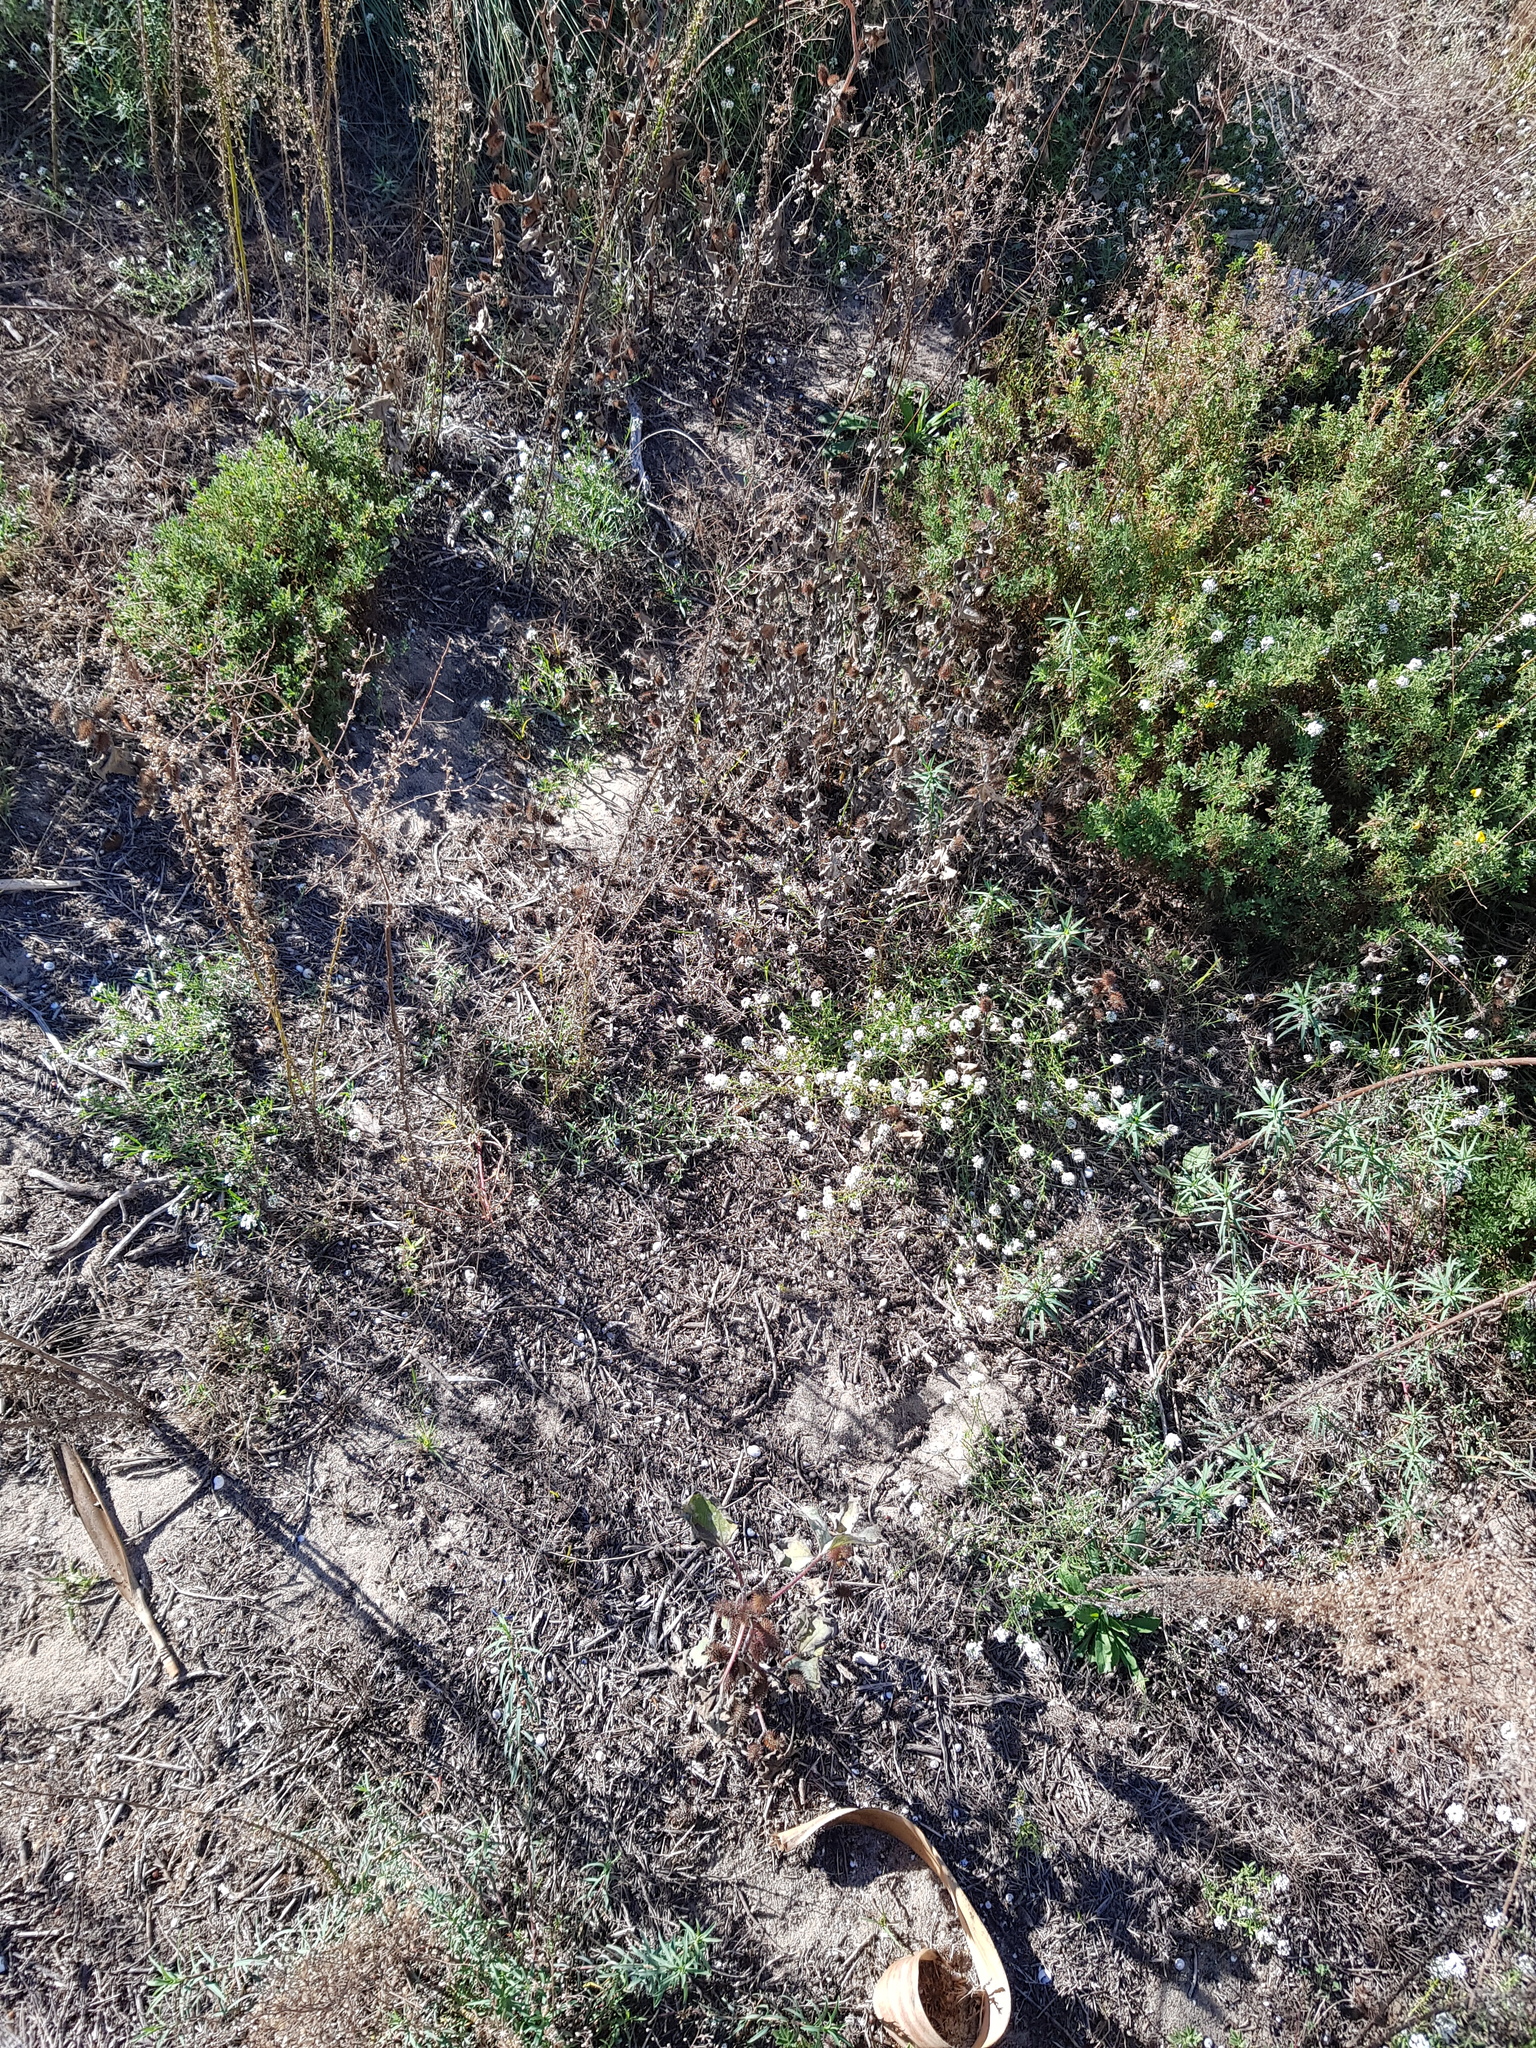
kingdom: Plantae
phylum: Tracheophyta
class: Magnoliopsida
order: Asterales
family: Asteraceae
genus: Xanthium
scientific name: Xanthium orientale
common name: Californian burr
